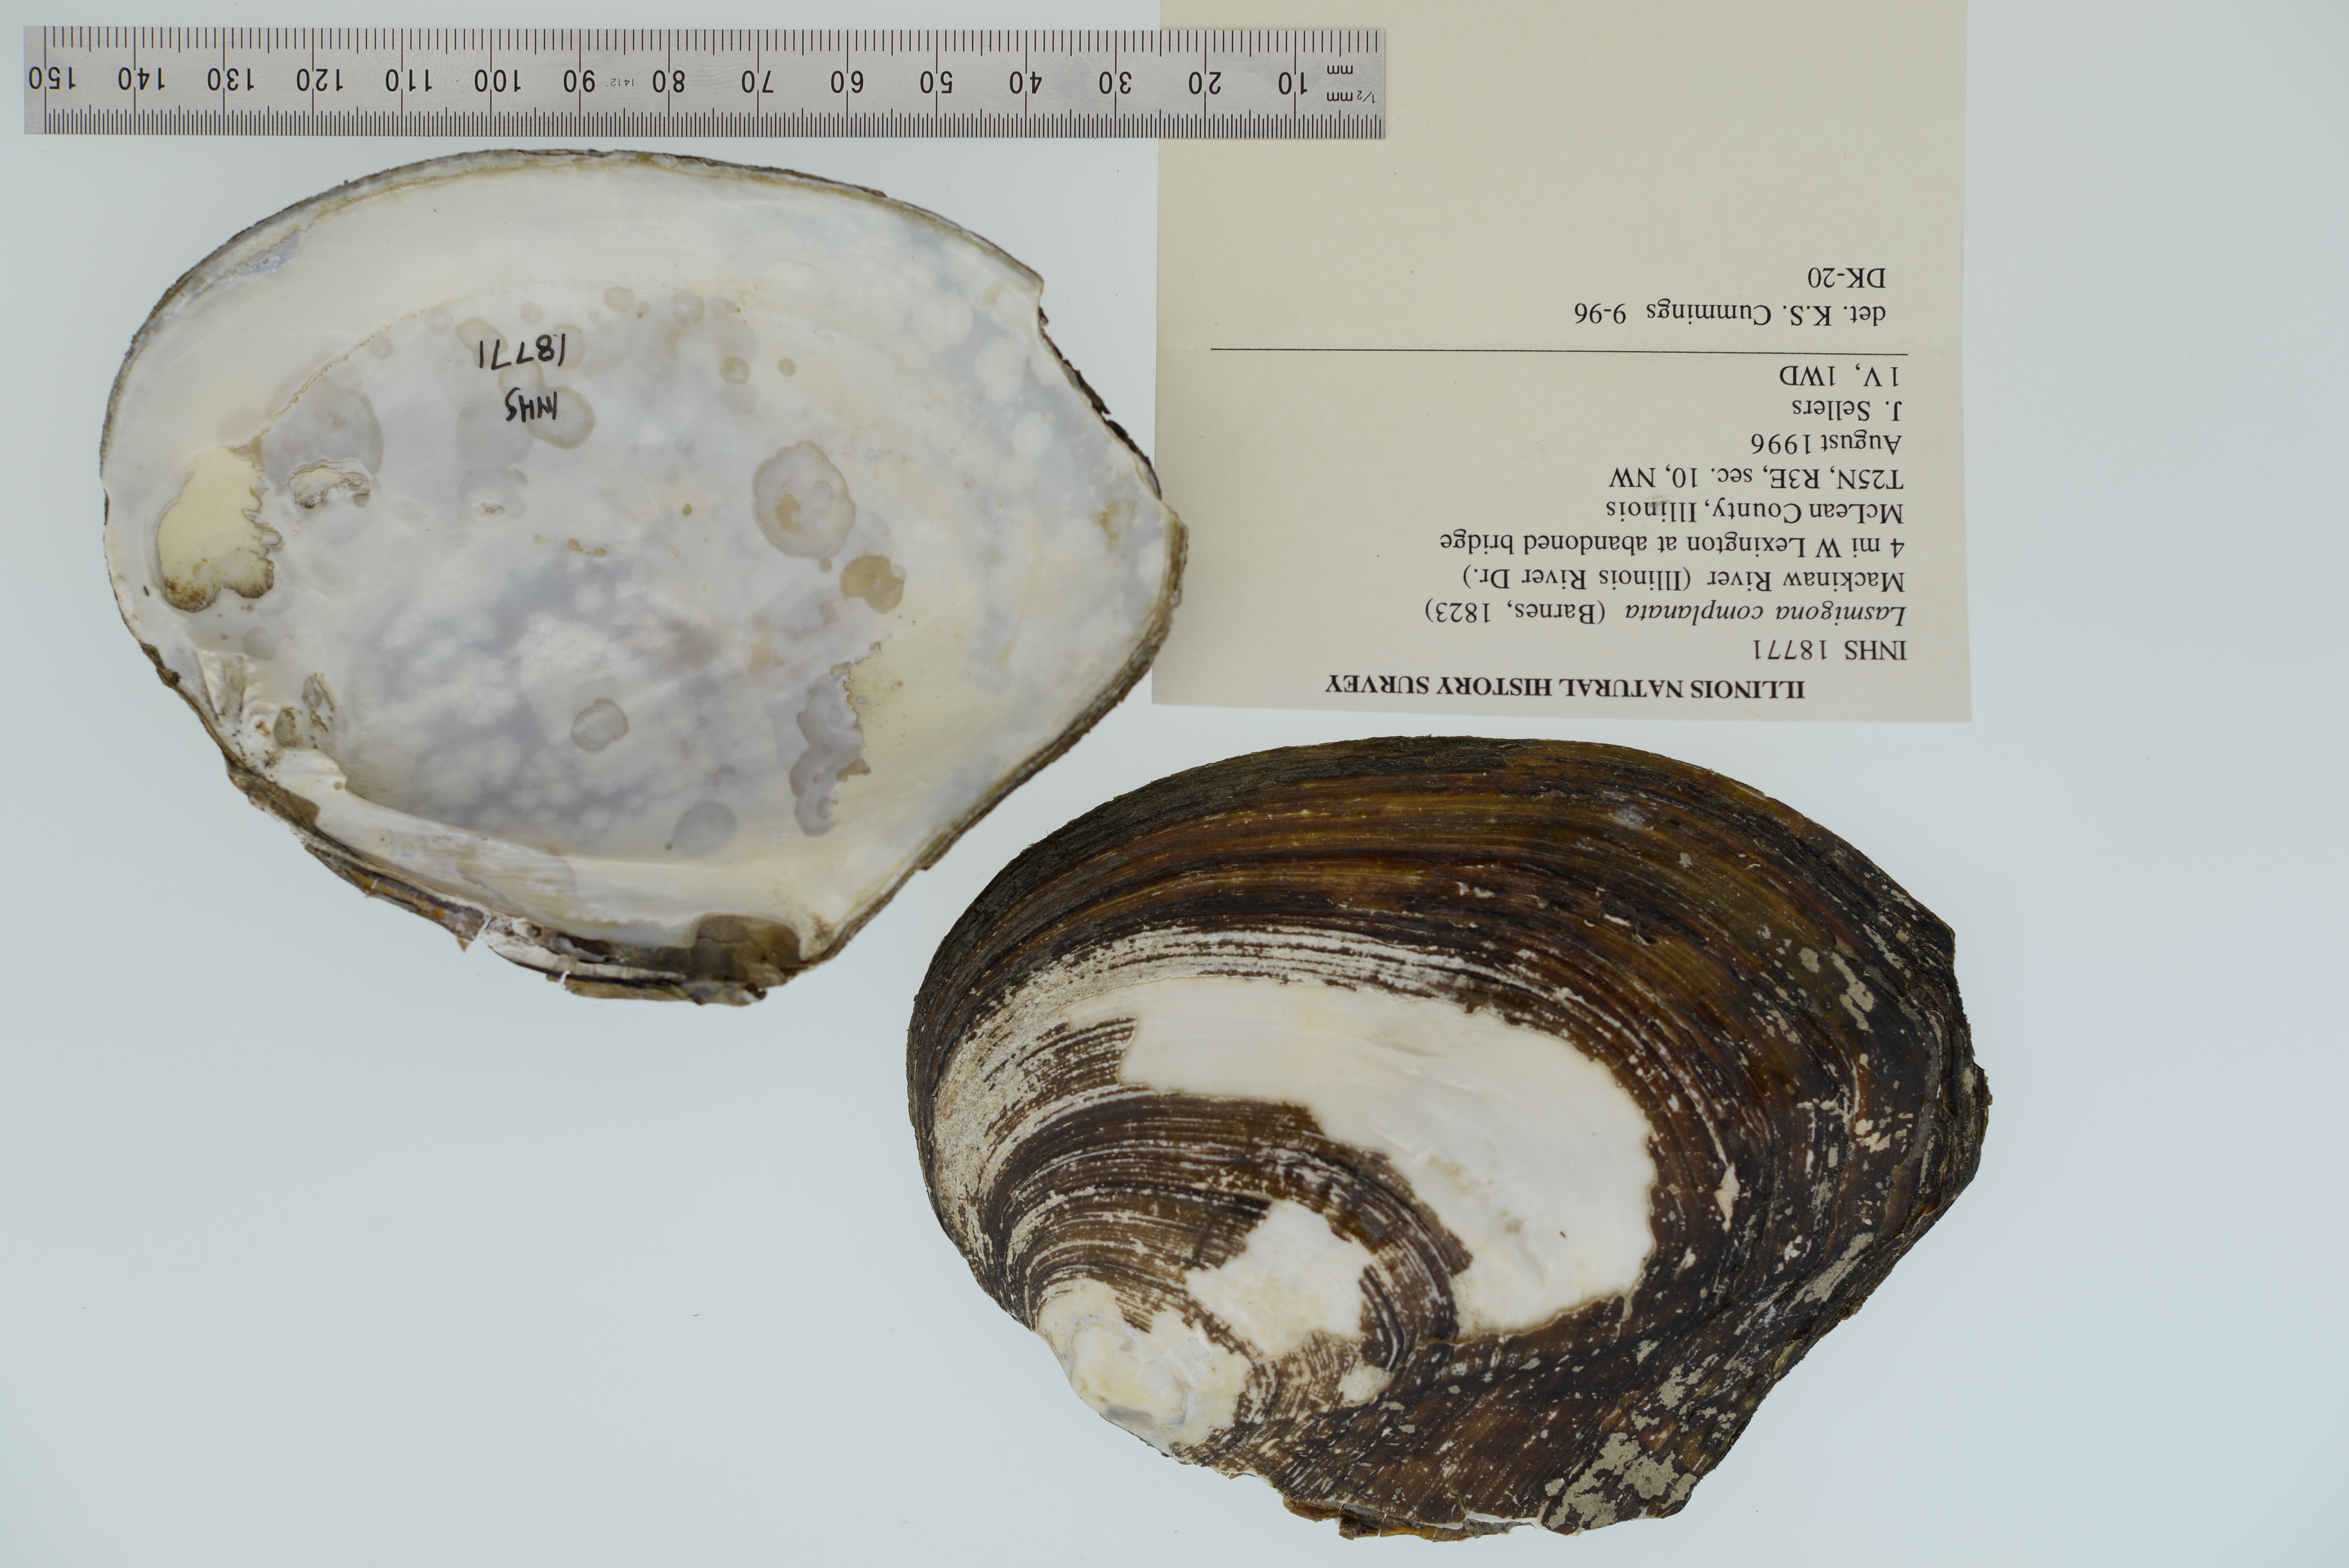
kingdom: Animalia
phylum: Mollusca
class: Bivalvia
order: Unionida
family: Unionidae
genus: Lasmigona
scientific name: Lasmigona complanata
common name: White heelsplitter
